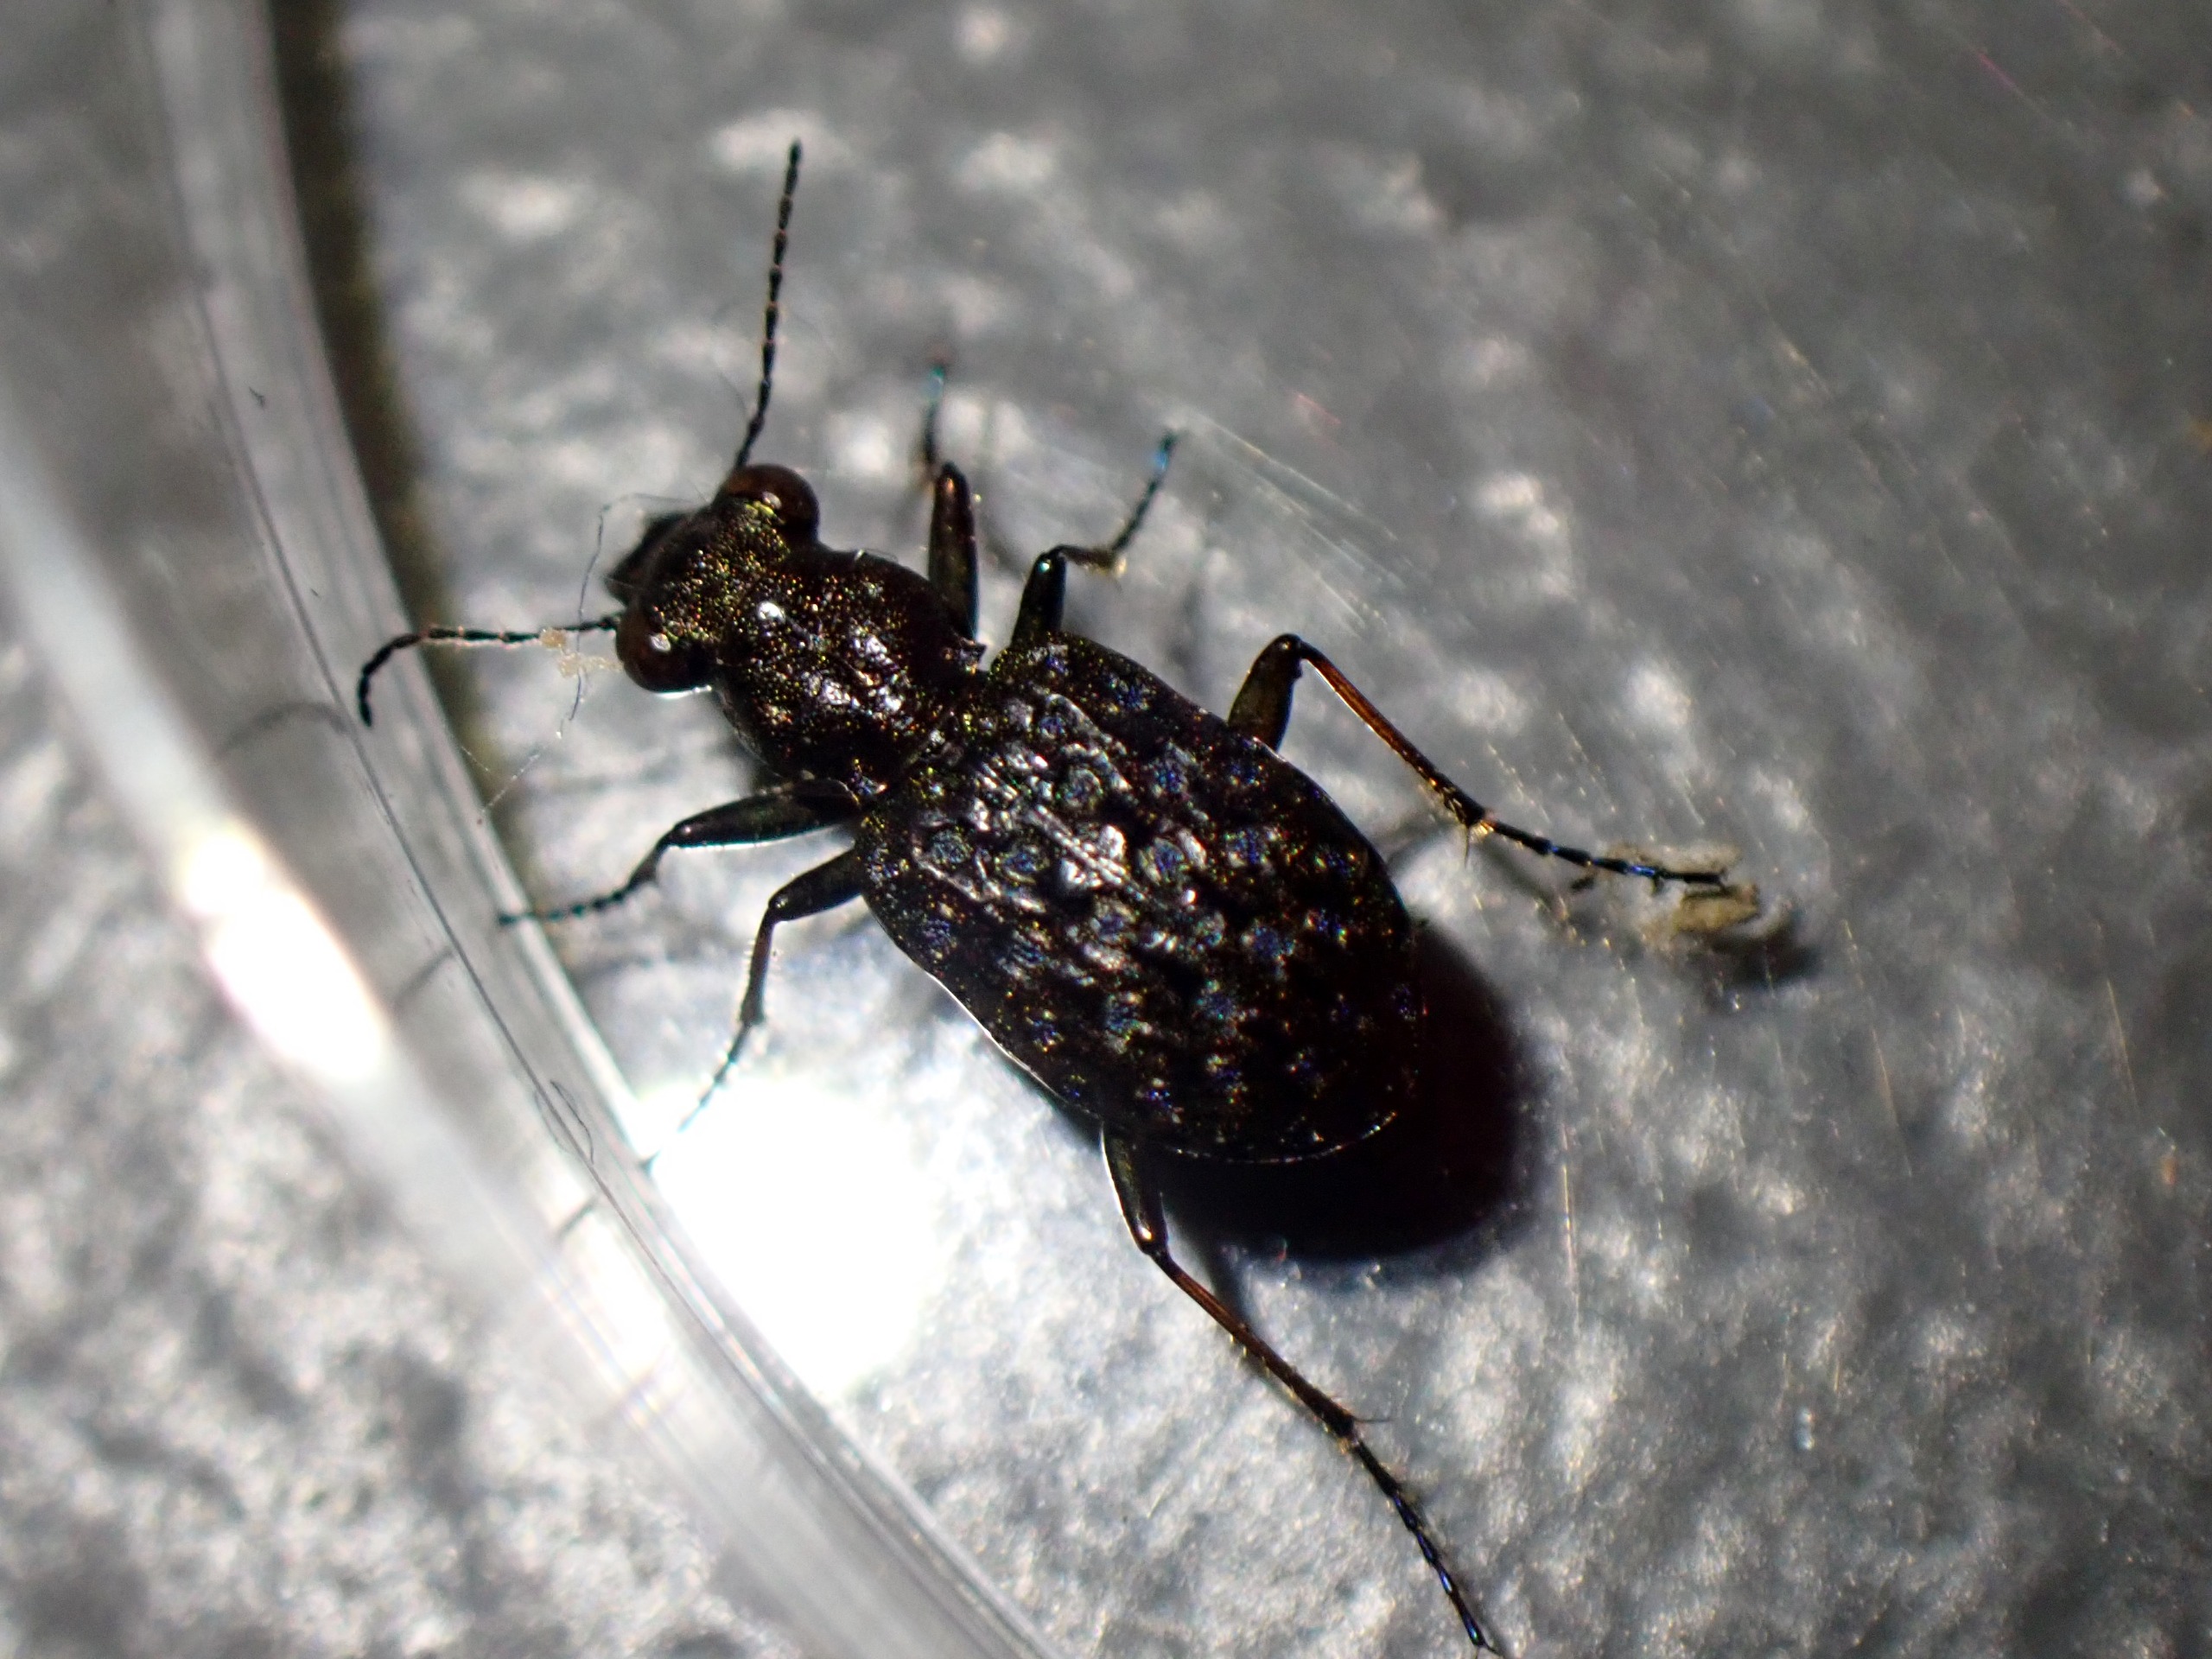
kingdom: Animalia
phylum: Arthropoda
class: Insecta
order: Coleoptera
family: Carabidae
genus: Elaphrus
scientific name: Elaphrus cupreus
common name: Kobberfarvet øjenløber
